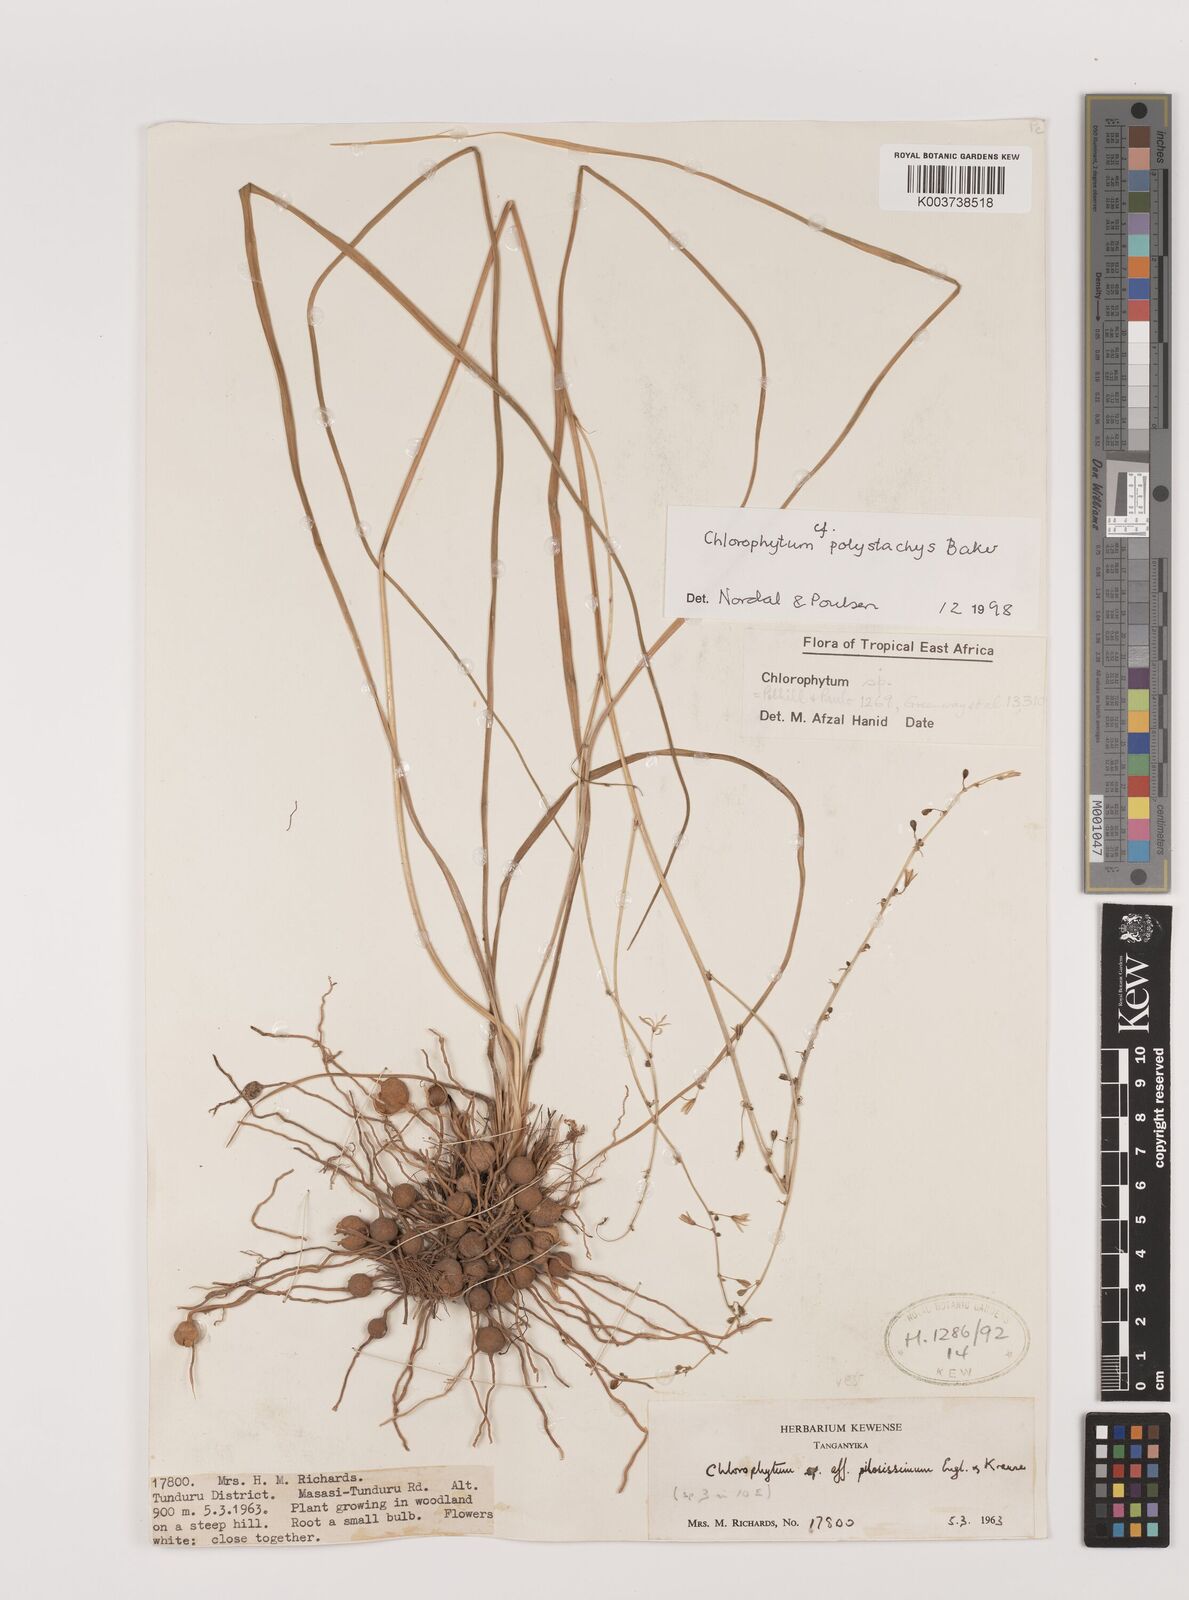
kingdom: Plantae
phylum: Tracheophyta
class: Liliopsida
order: Asparagales
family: Asparagaceae
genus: Chlorophytum
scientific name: Chlorophytum polystachys
